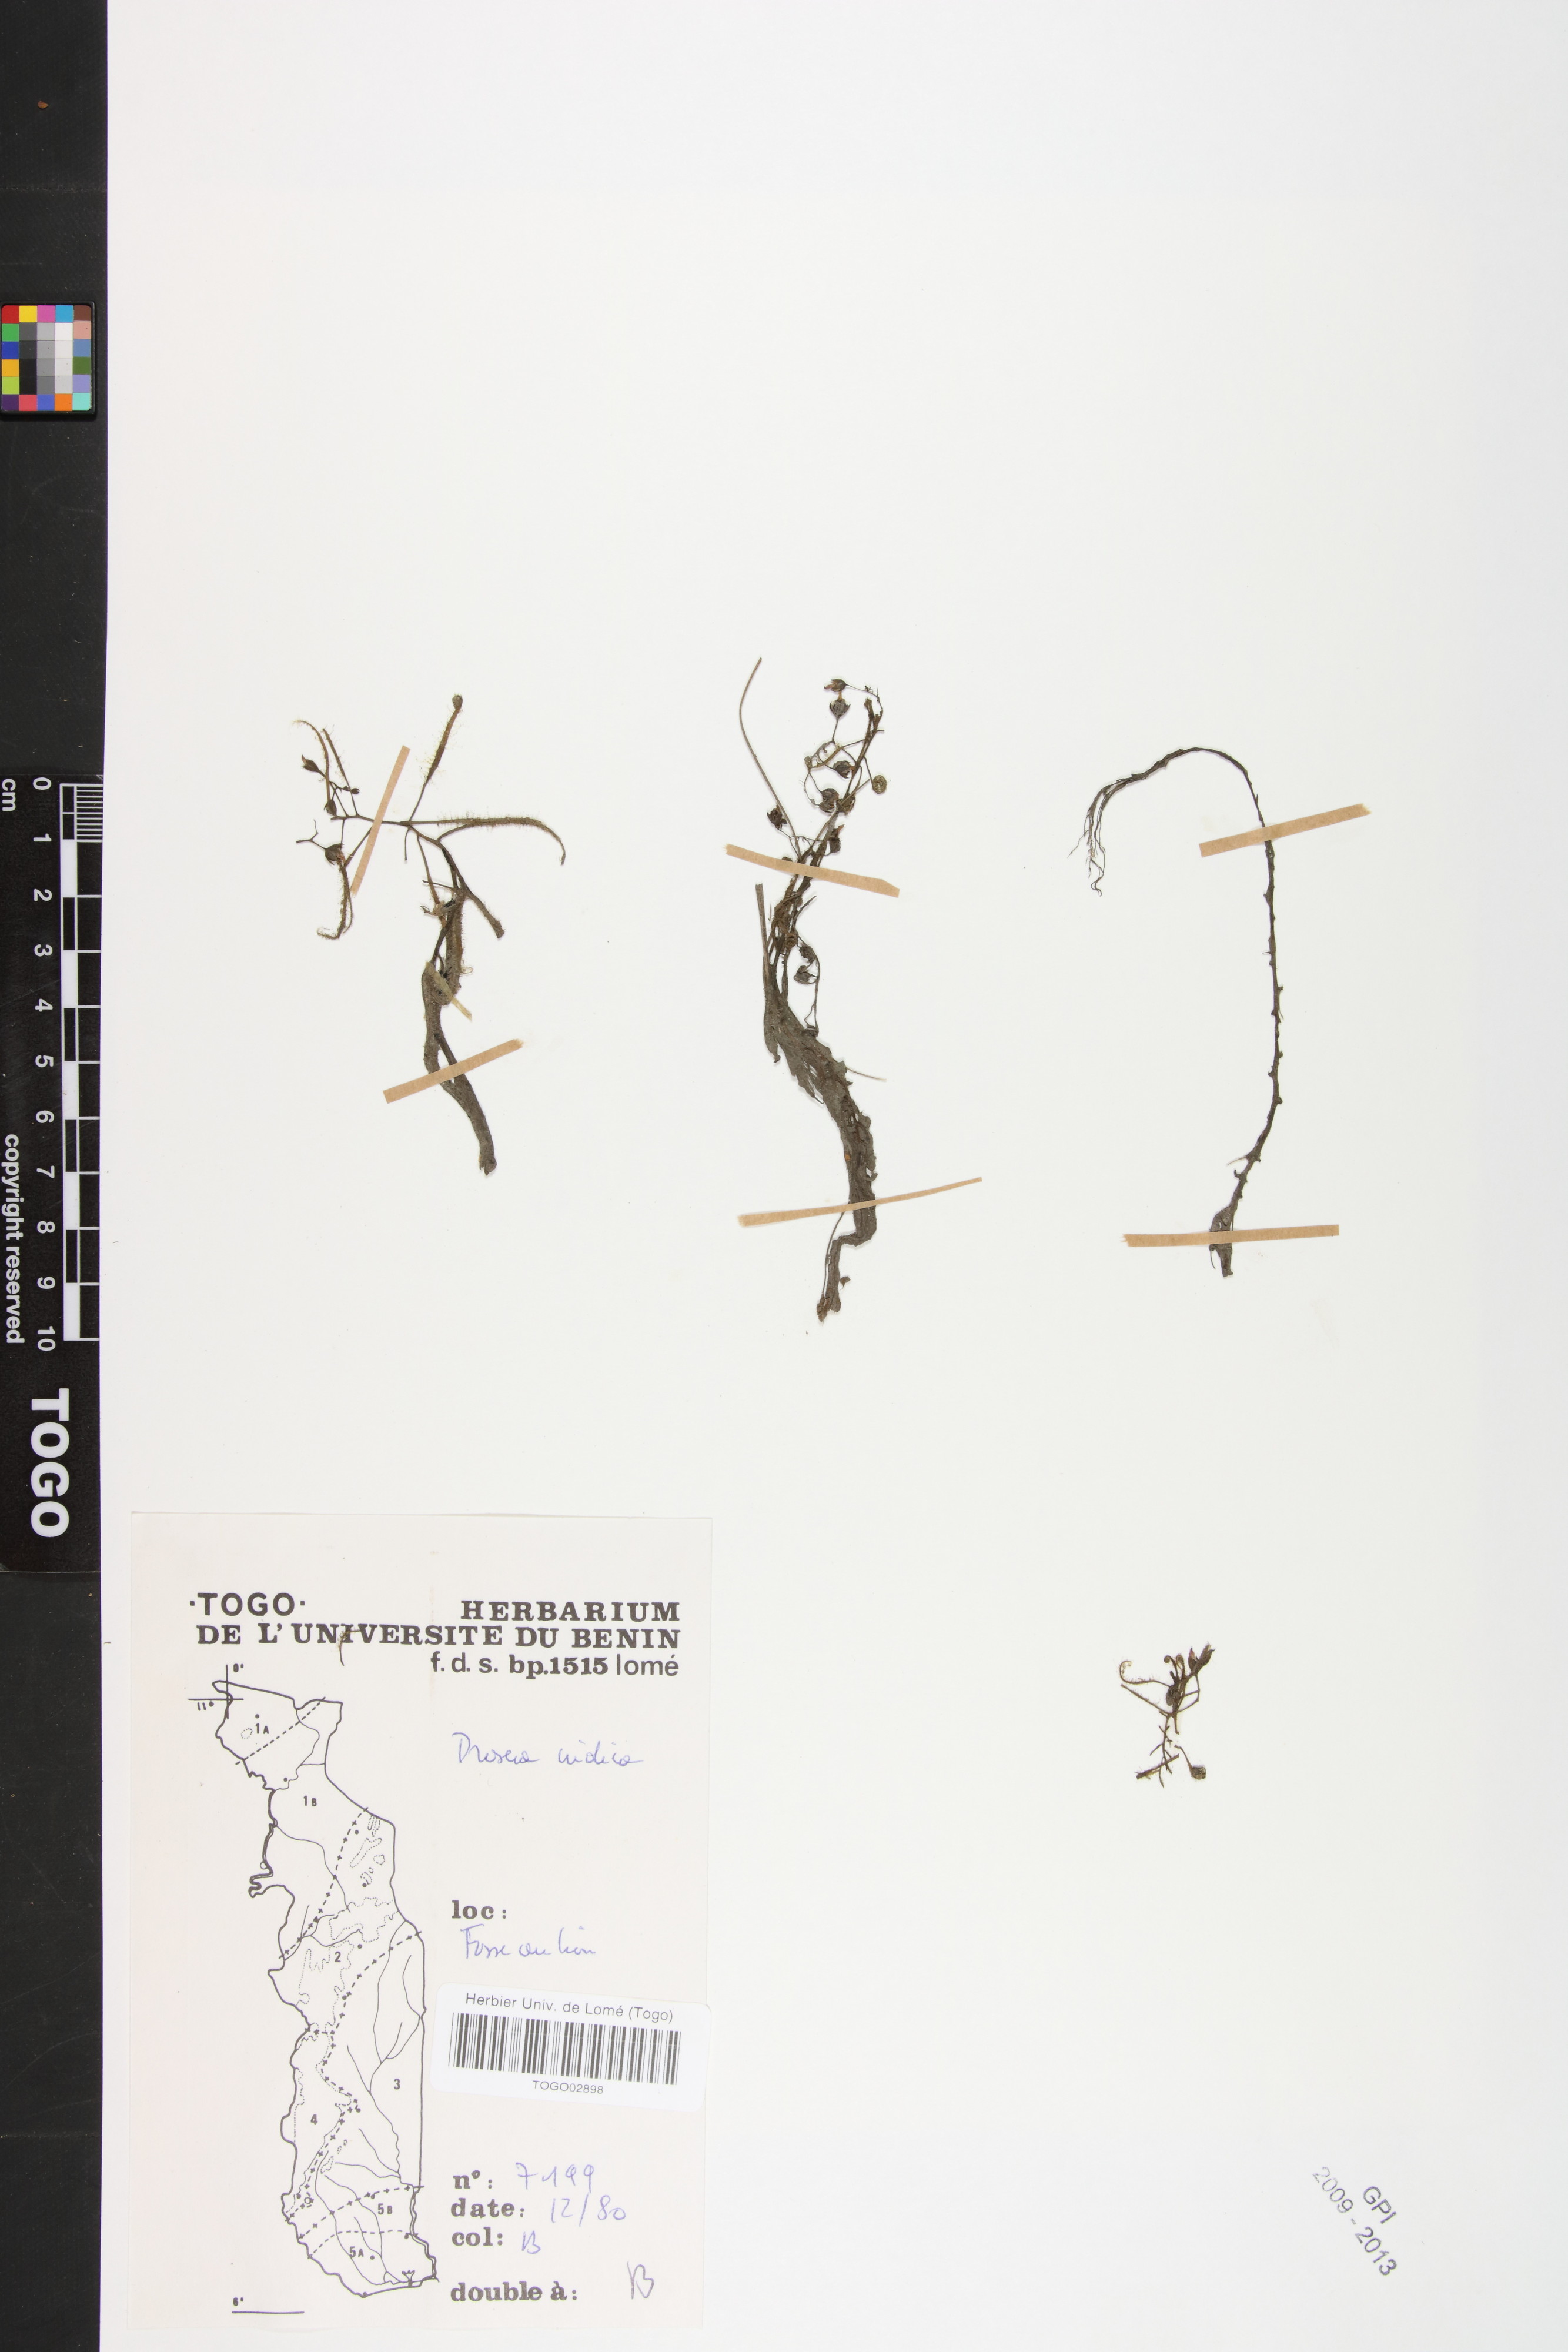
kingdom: Plantae
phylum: Tracheophyta
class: Magnoliopsida
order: Caryophyllales
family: Droseraceae
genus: Drosera
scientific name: Drosera indica
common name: Indian sundew
